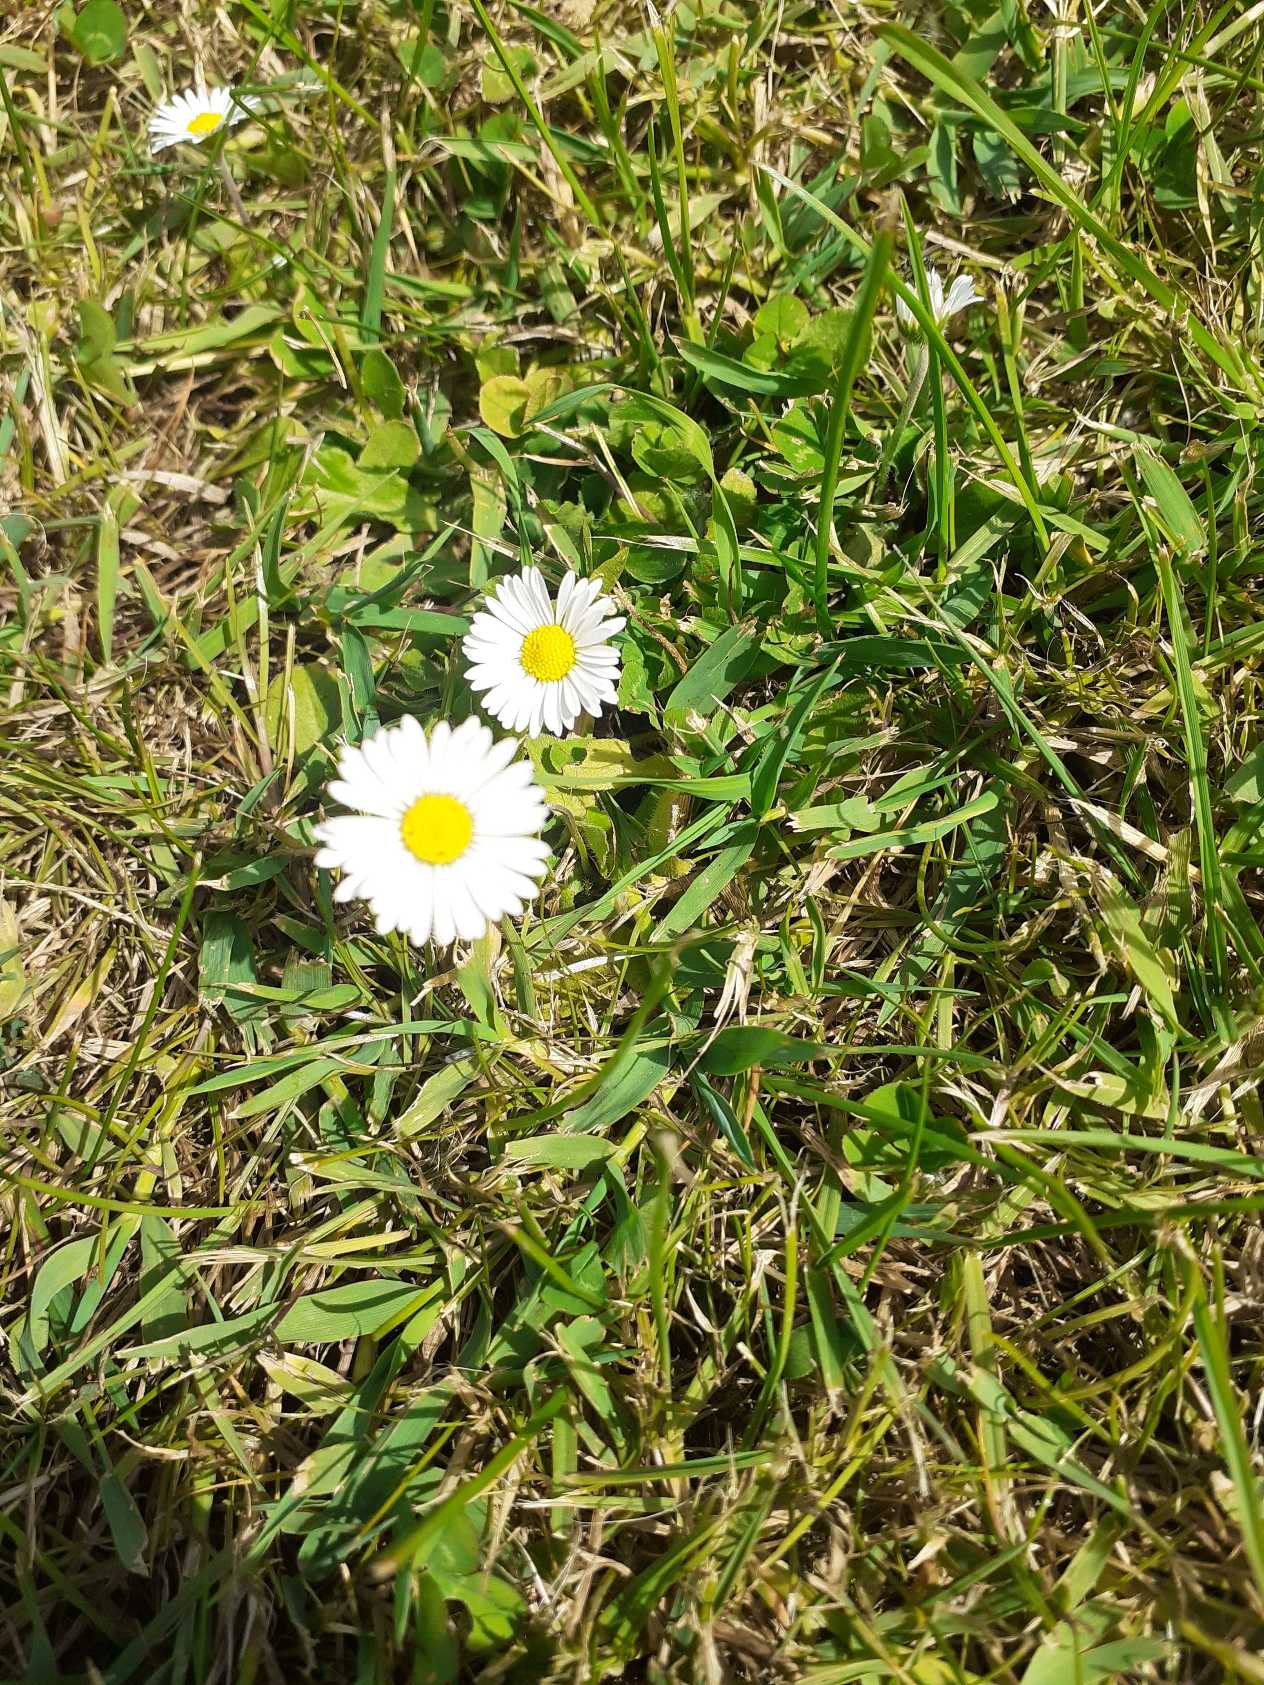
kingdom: Plantae
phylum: Tracheophyta
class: Magnoliopsida
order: Asterales
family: Asteraceae
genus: Bellis
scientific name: Bellis perennis
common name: Tusindfryd
